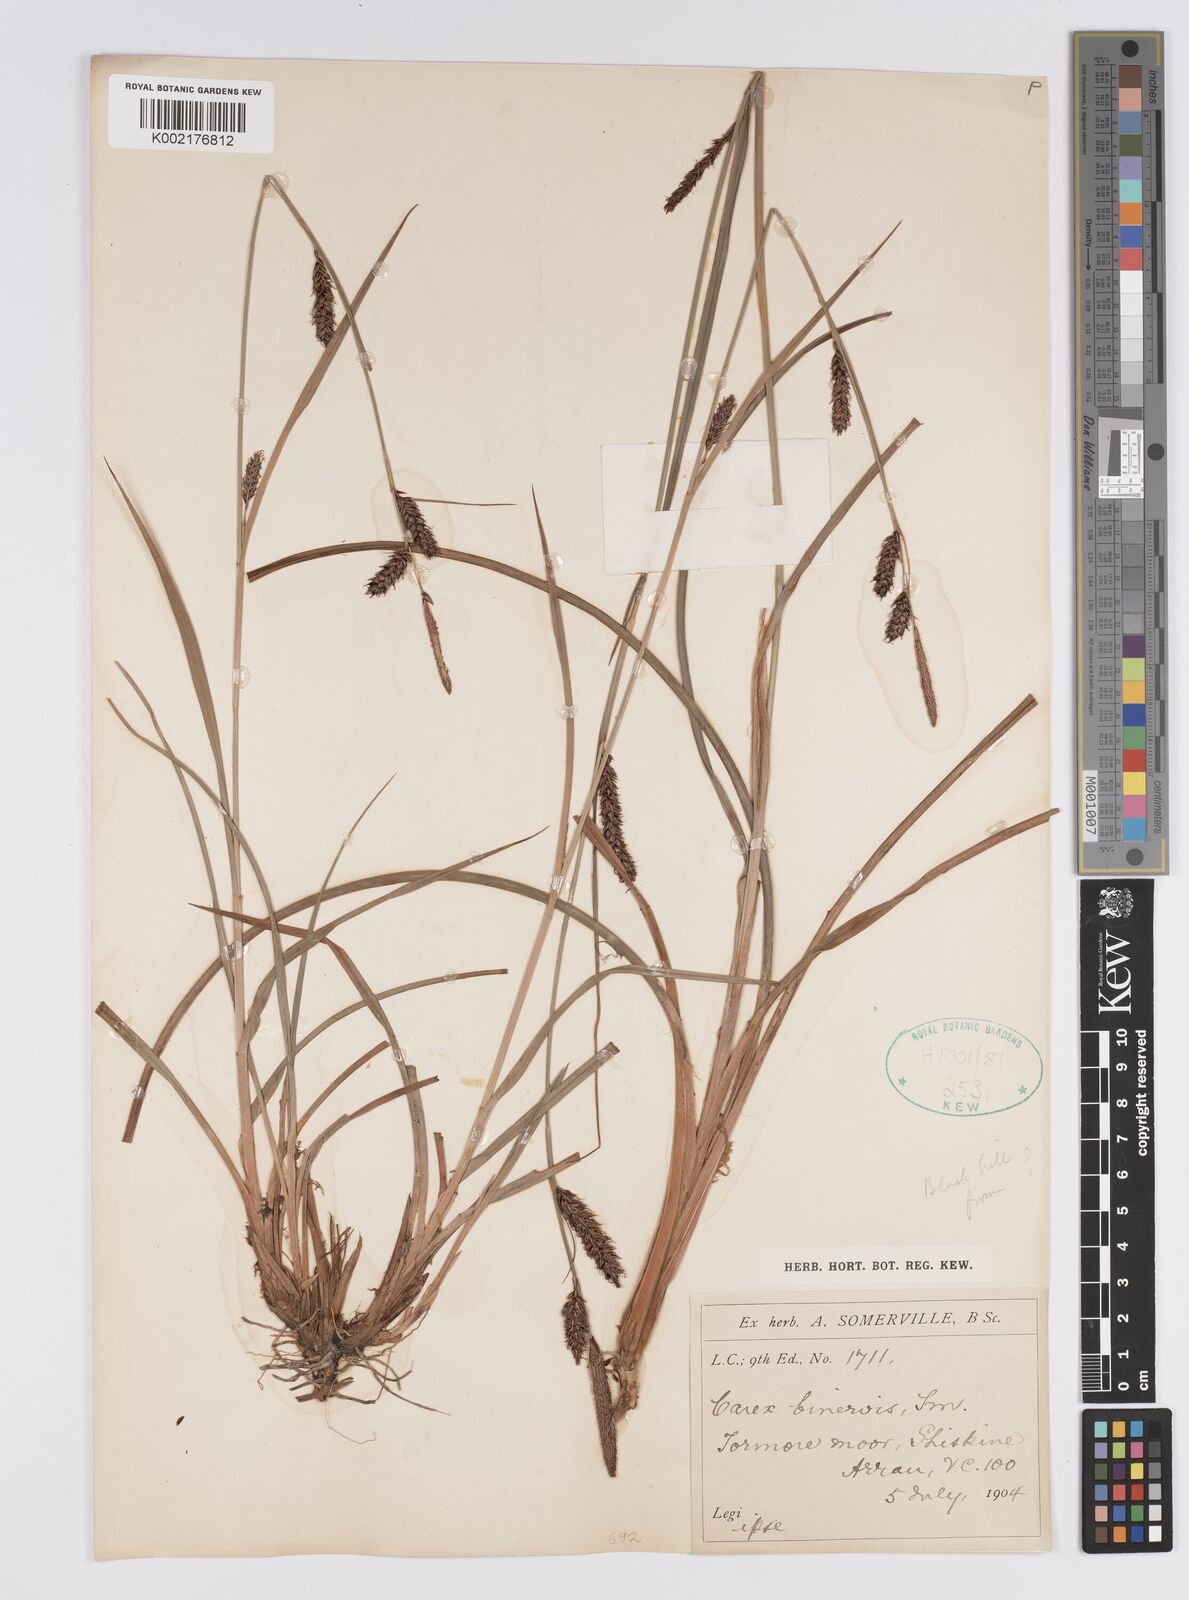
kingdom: Plantae
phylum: Tracheophyta
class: Liliopsida
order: Poales
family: Cyperaceae
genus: Carex
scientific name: Carex binervis
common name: Green-ribbed sedge
